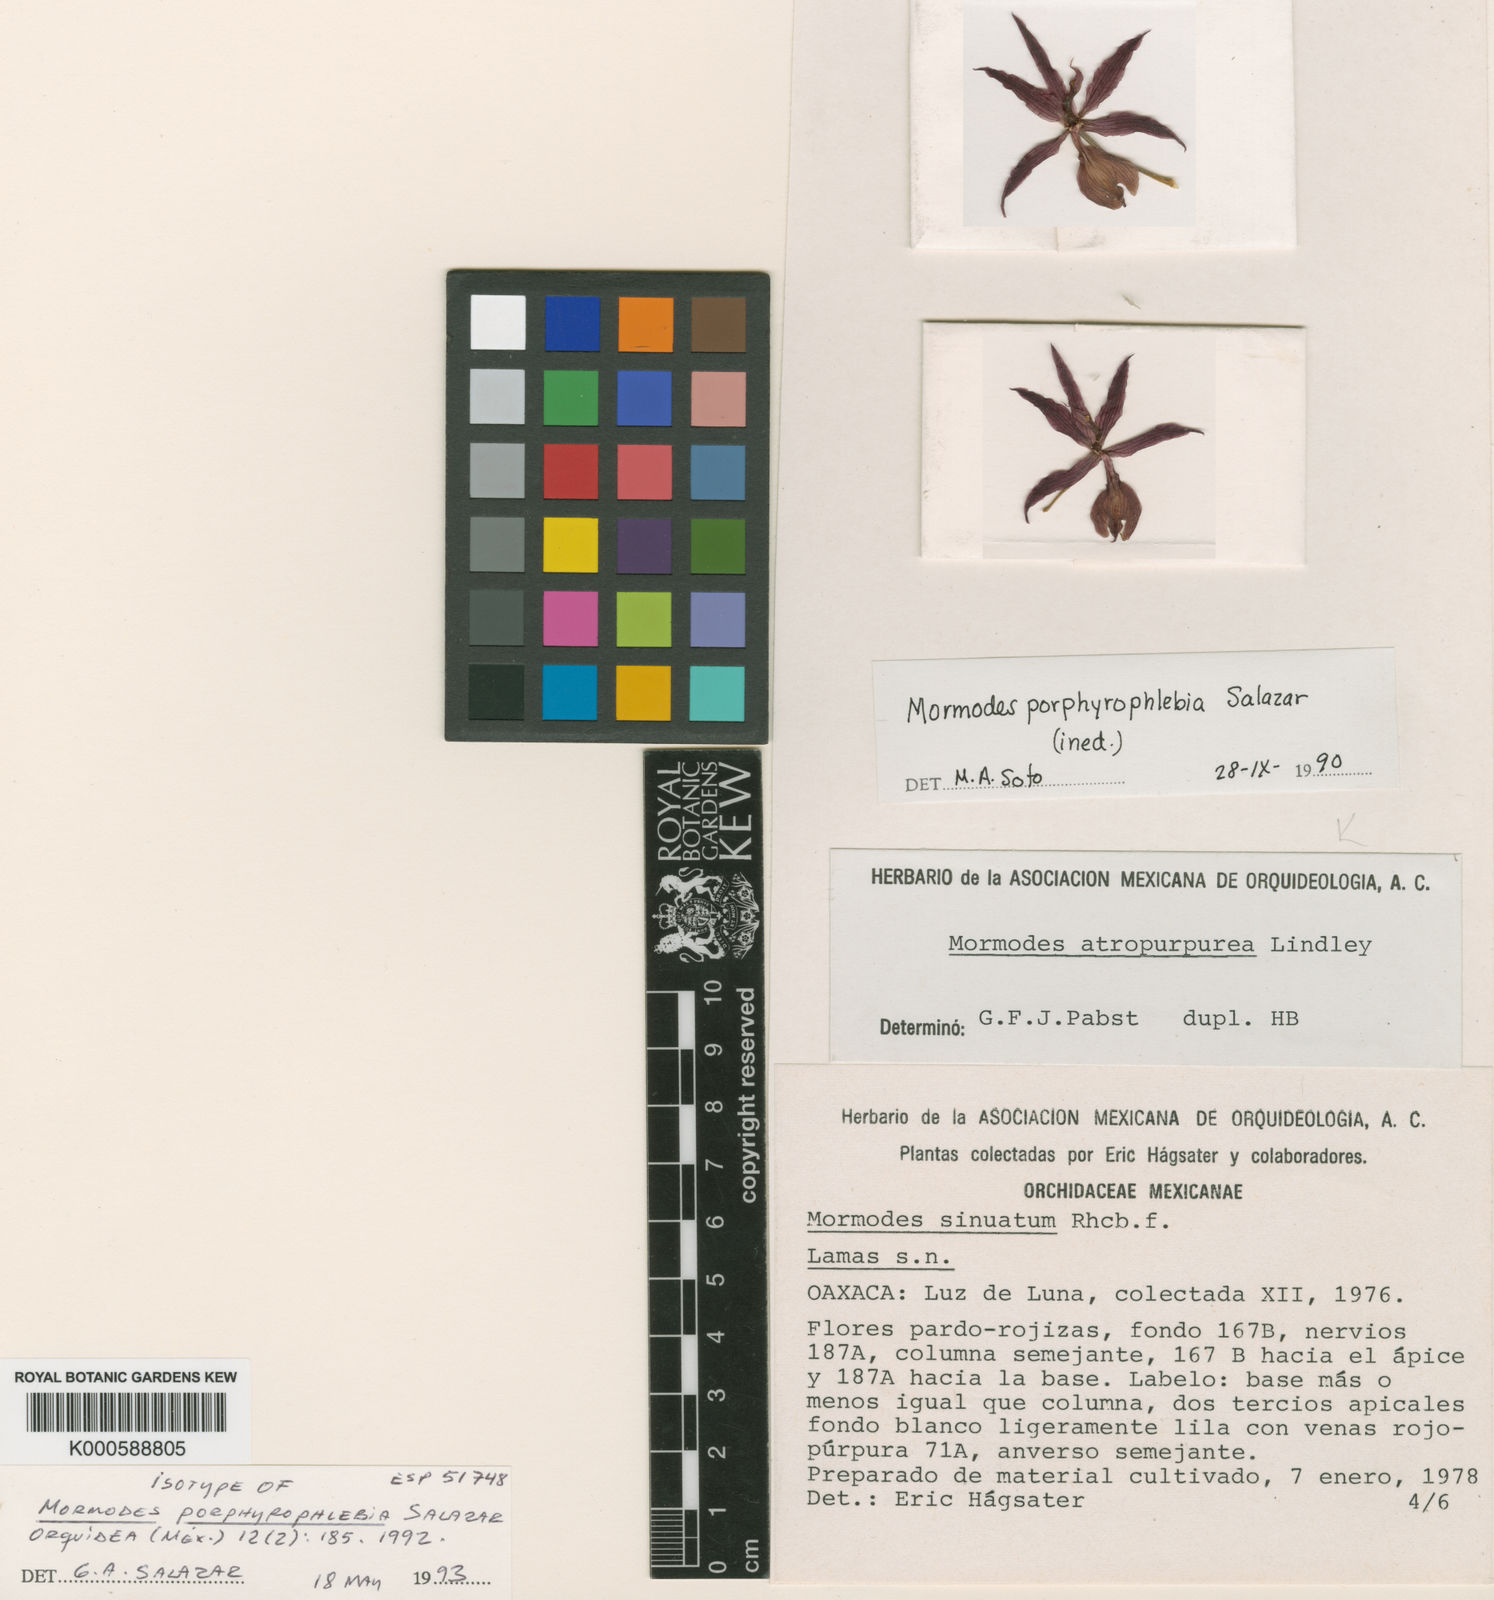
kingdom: Plantae
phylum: Tracheophyta
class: Liliopsida
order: Asparagales
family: Orchidaceae
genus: Mormodes
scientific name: Mormodes porphyrophlebia
